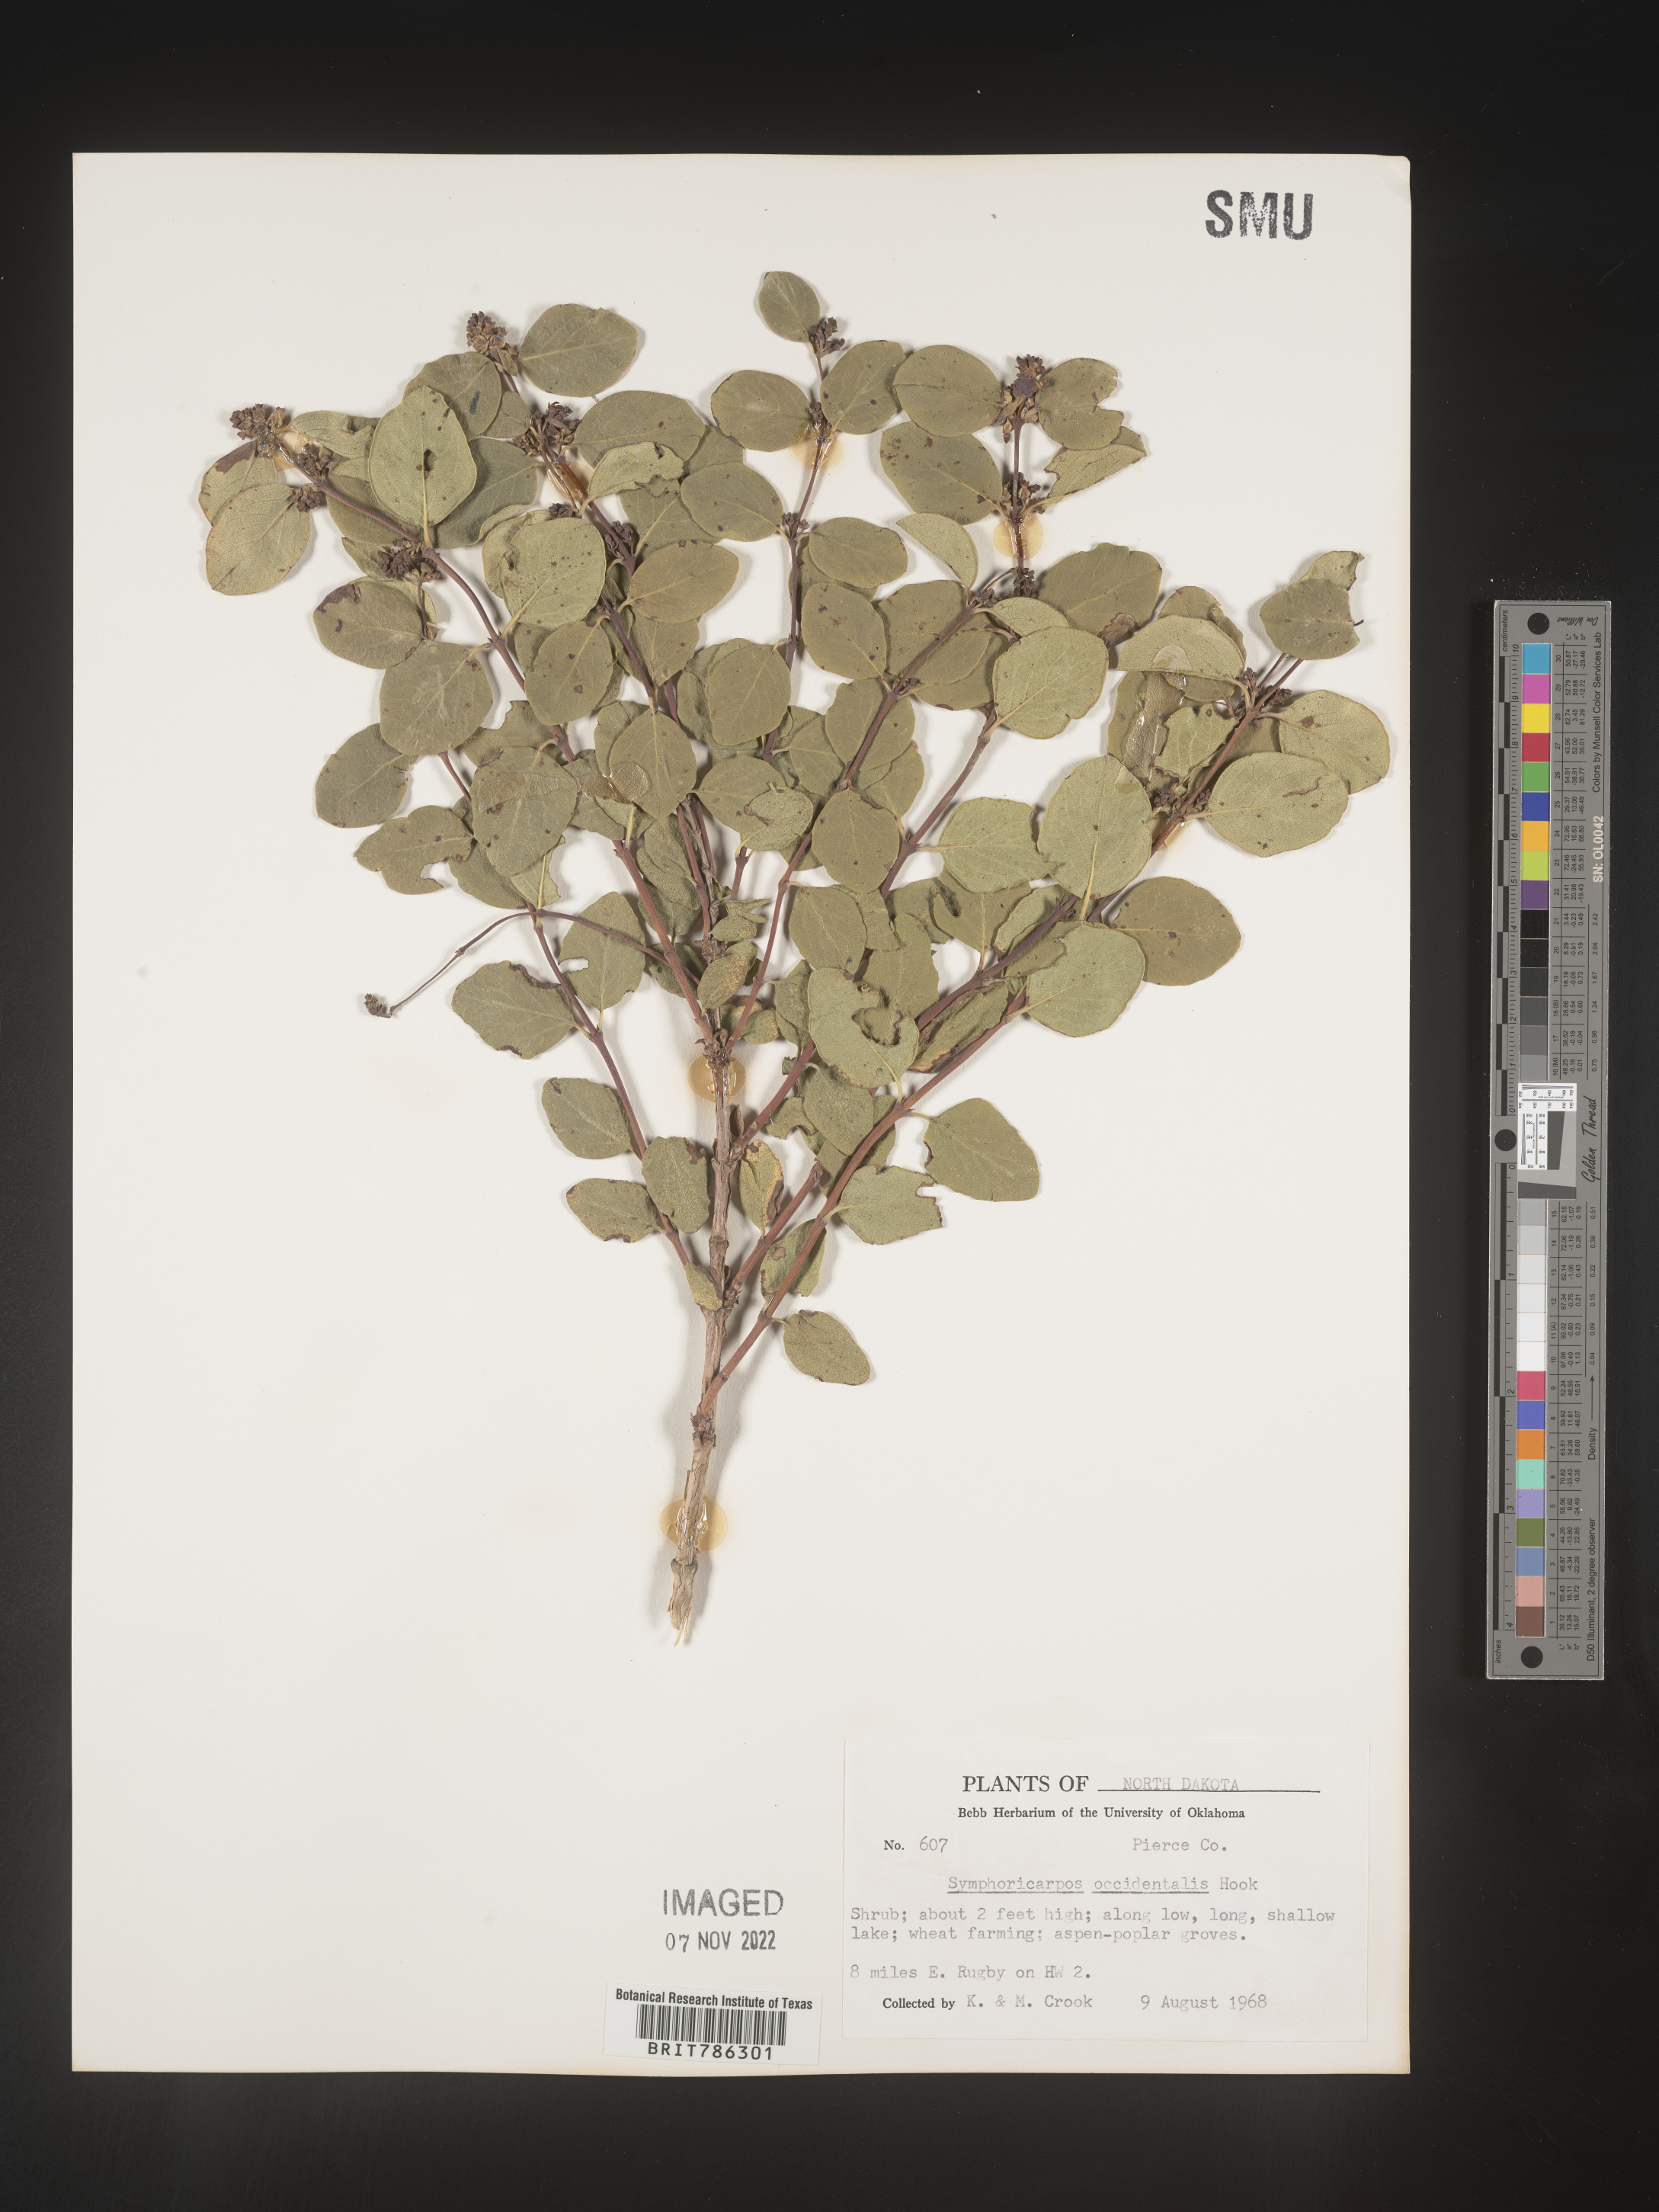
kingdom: Plantae
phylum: Tracheophyta
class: Magnoliopsida
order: Dipsacales
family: Caprifoliaceae
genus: Symphoricarpos
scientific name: Symphoricarpos occidentalis
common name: Wolfberry
